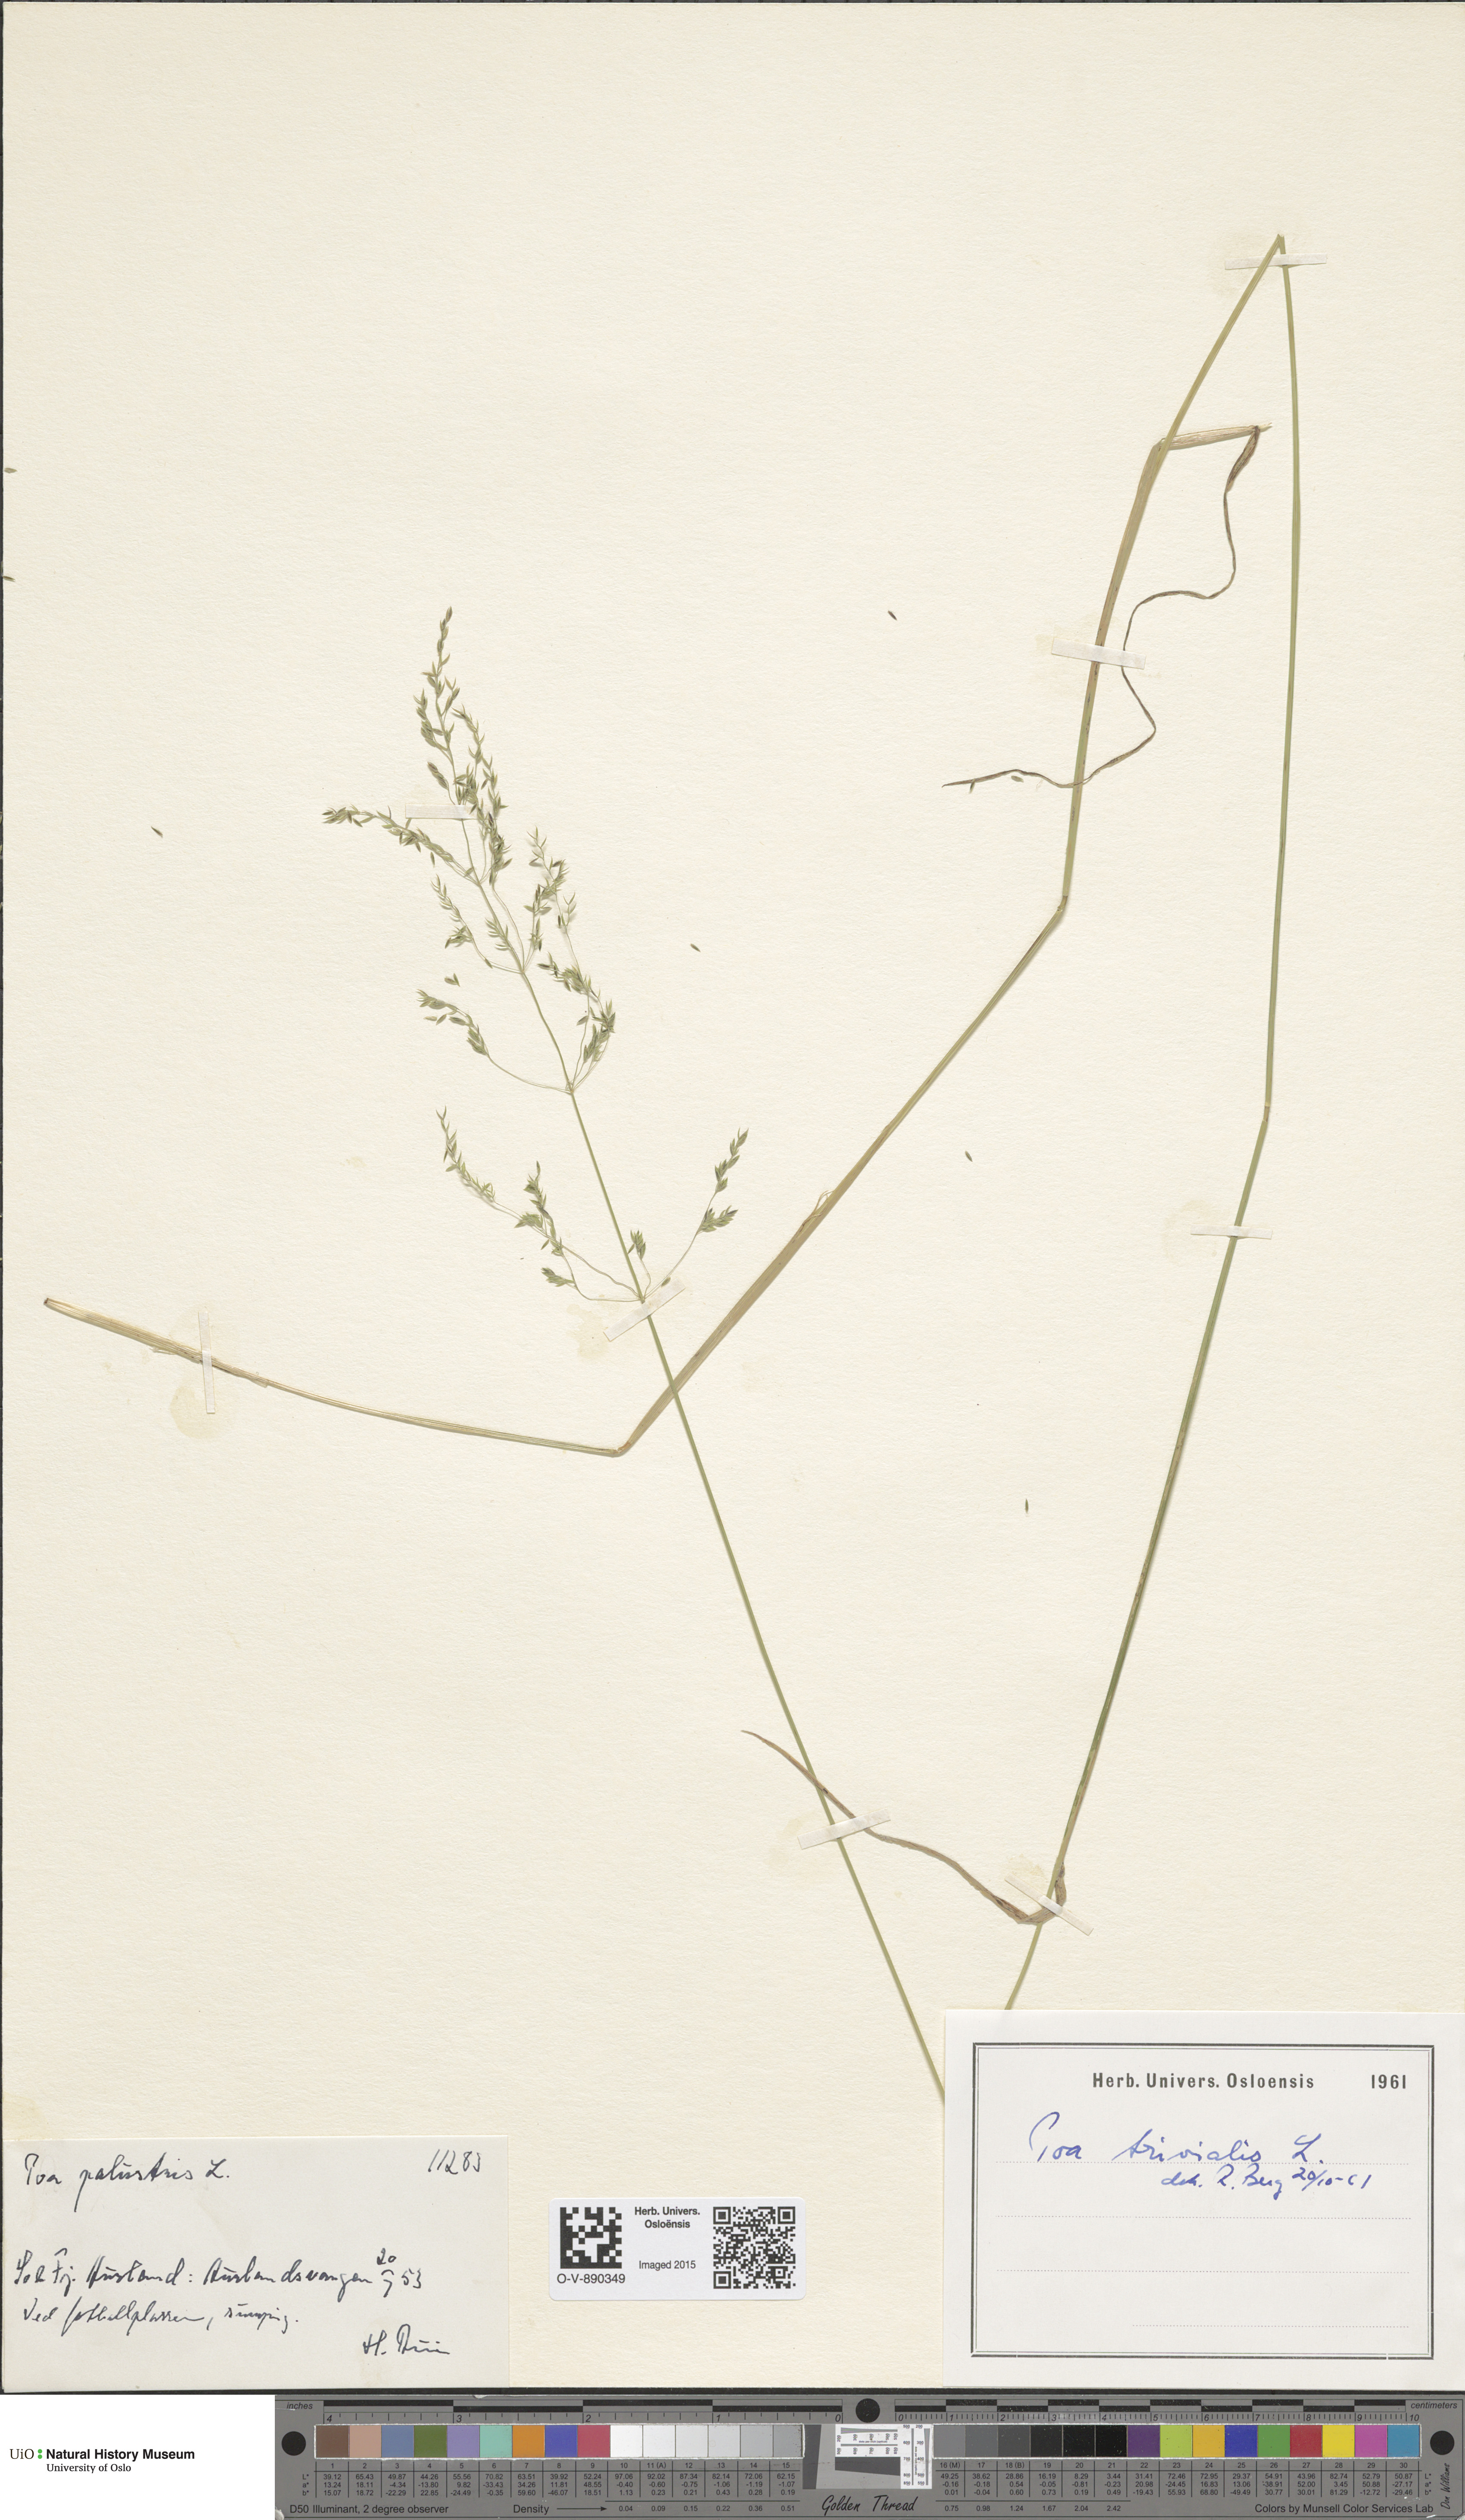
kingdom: Plantae
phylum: Tracheophyta
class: Liliopsida
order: Poales
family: Poaceae
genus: Poa
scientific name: Poa trivialis
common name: Rough bluegrass
